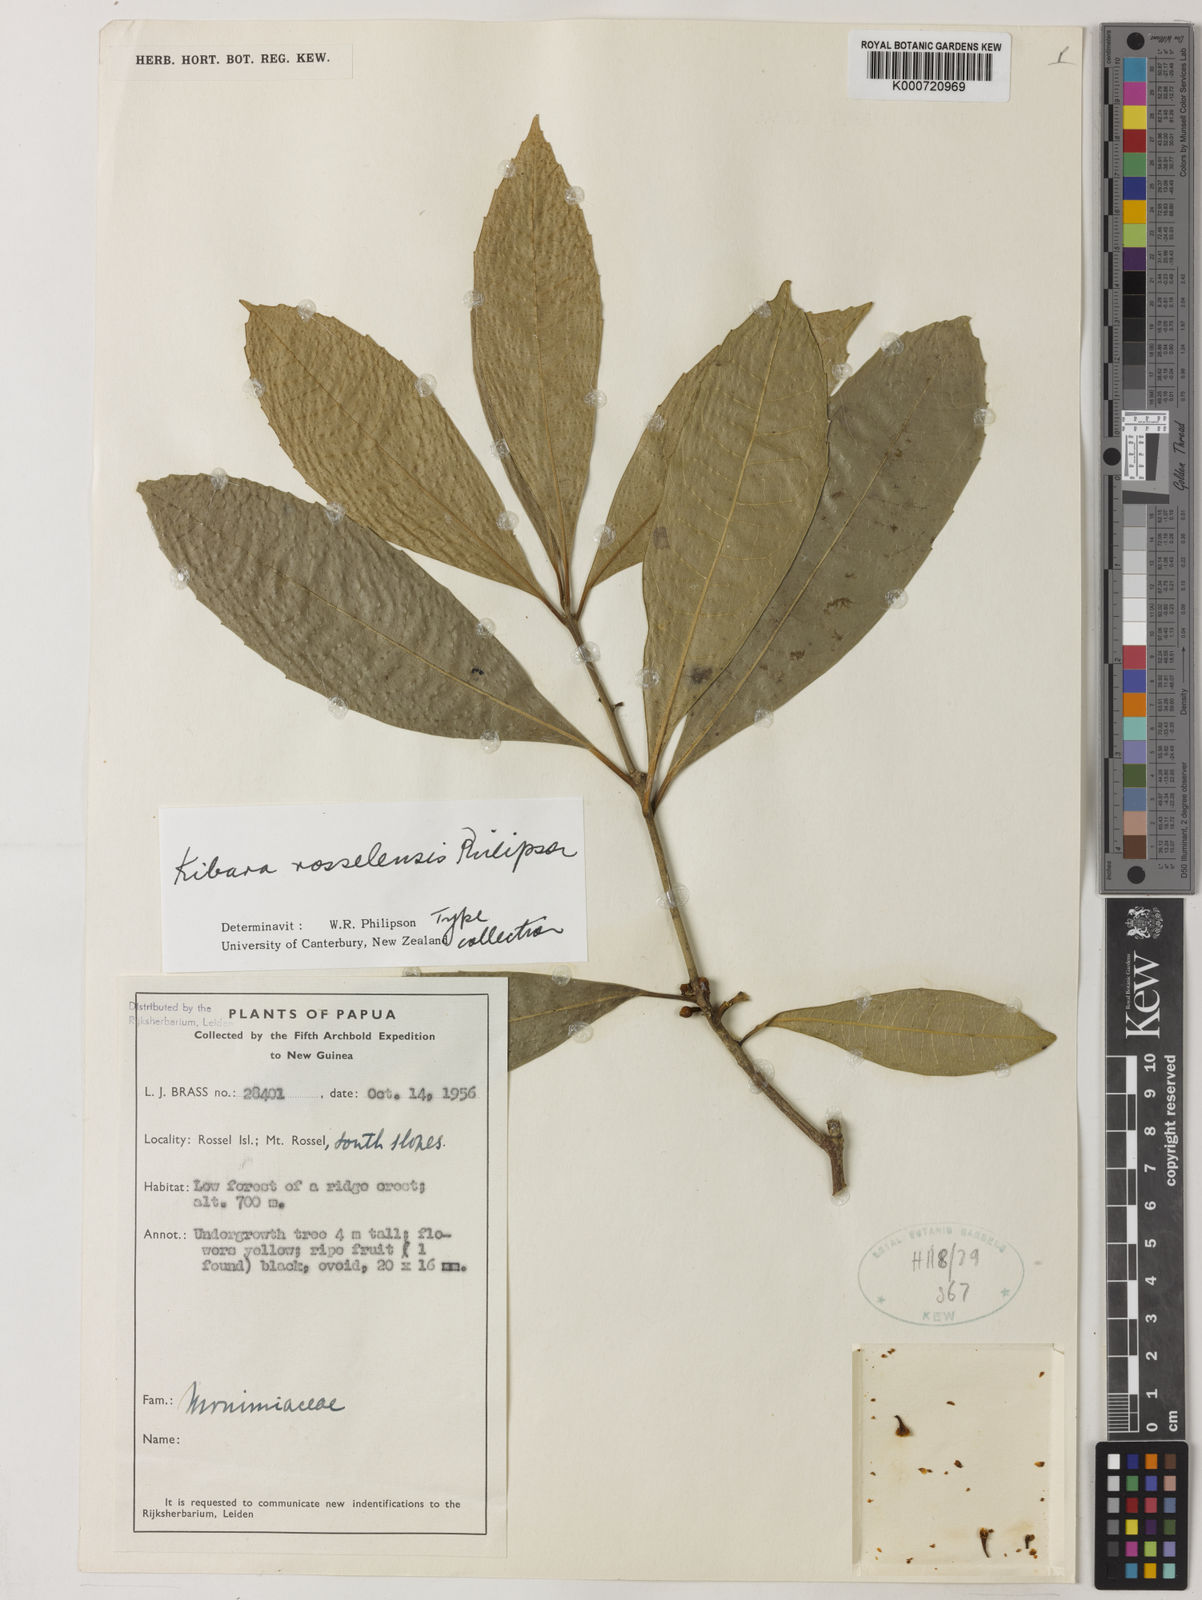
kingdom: Plantae
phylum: Tracheophyta
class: Magnoliopsida
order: Laurales
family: Monimiaceae
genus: Kibara
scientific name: Kibara rosselensis
